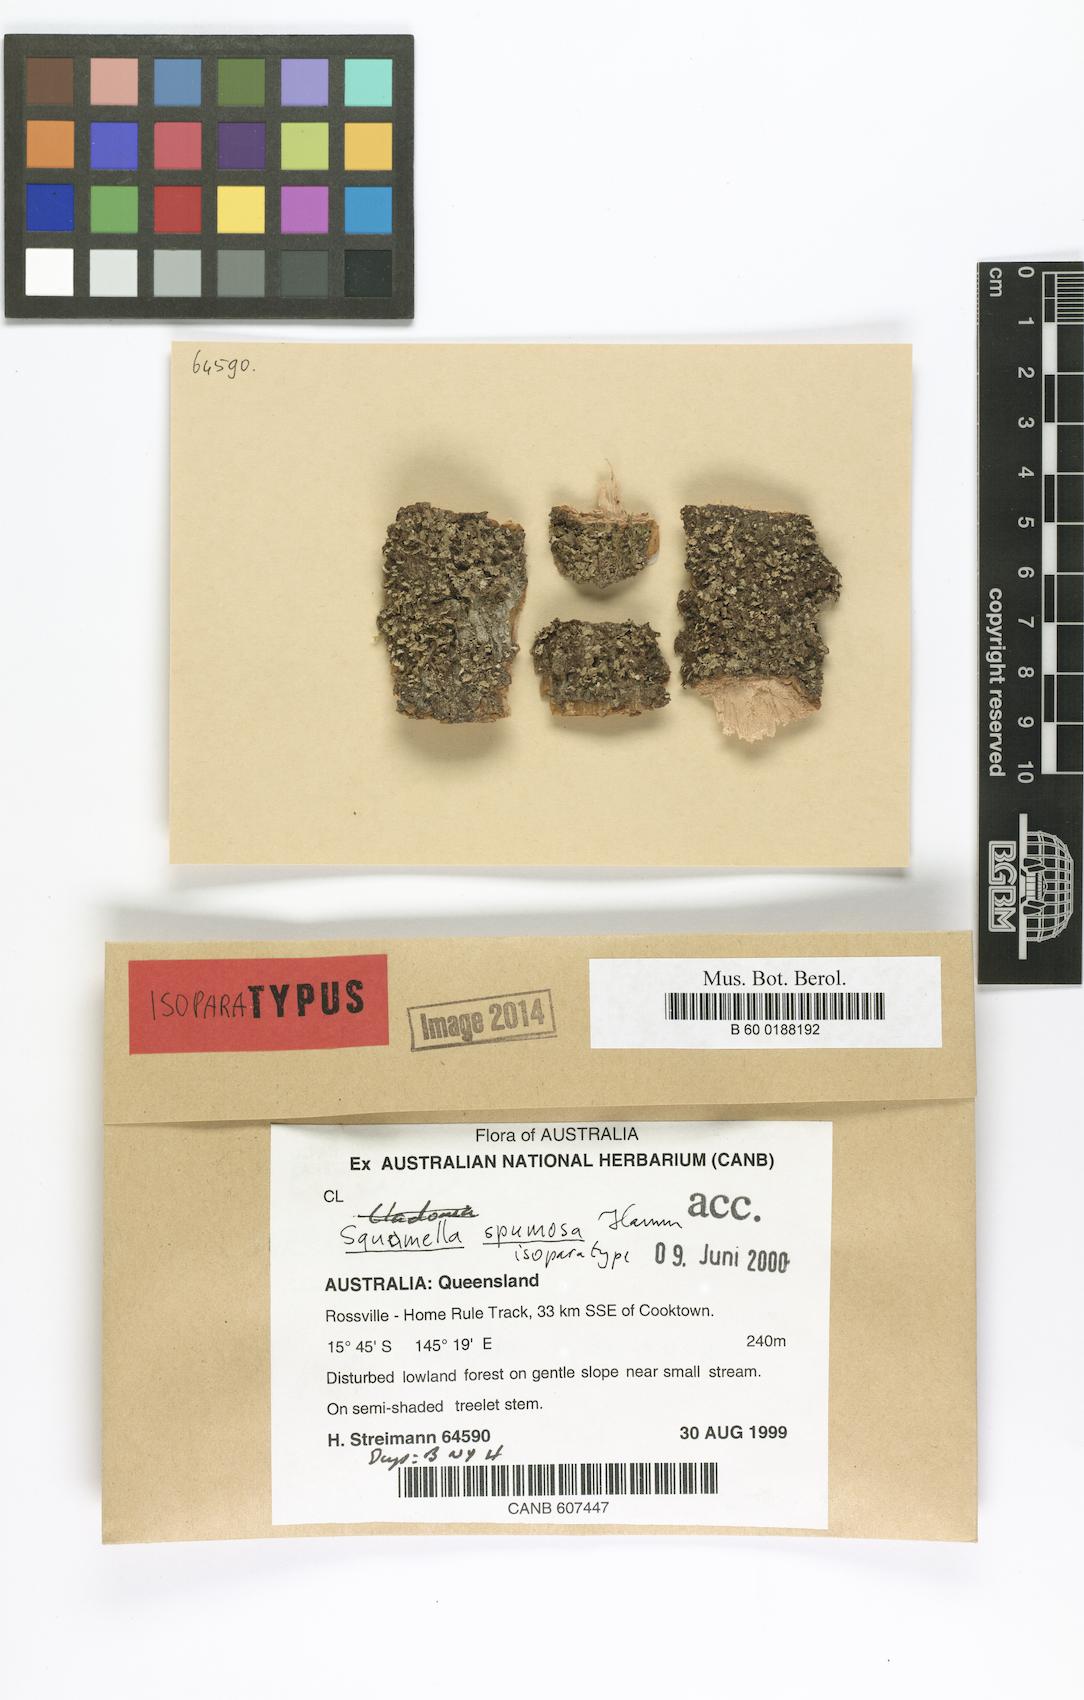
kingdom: Fungi
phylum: Ascomycota
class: Lecanoromycetes
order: Lecanorales
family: Cladoniaceae
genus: Squamella
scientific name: Squamella spumosa
